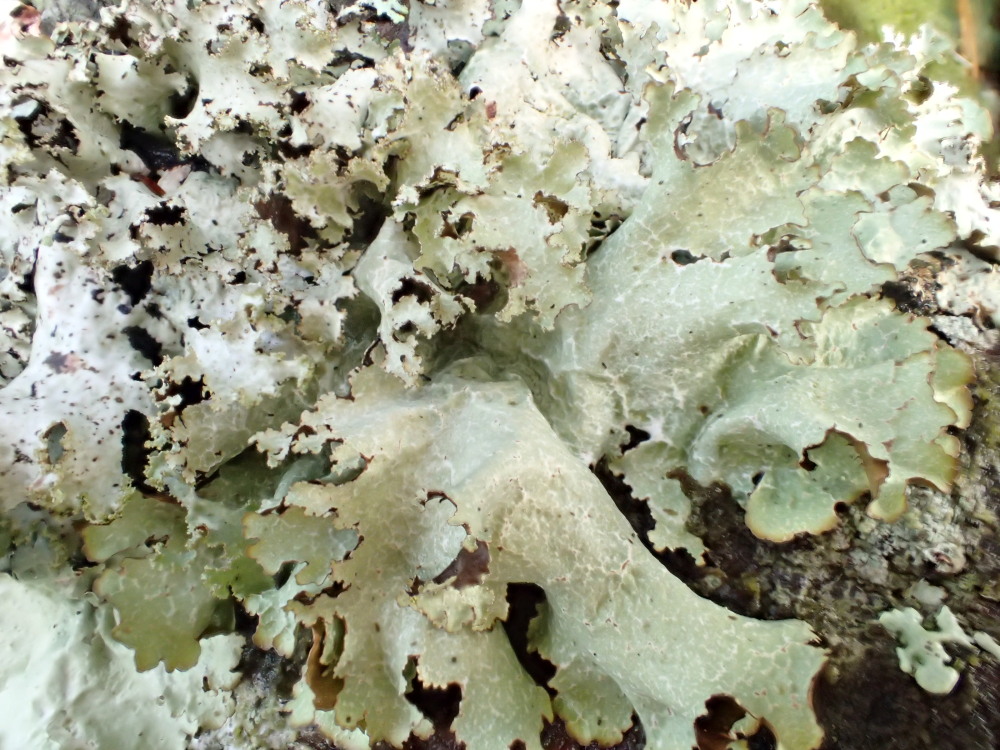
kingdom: Fungi
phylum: Ascomycota
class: Lecanoromycetes
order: Lecanorales
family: Parmeliaceae
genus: Platismatia
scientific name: Platismatia glauca
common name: blågrå papirlav
